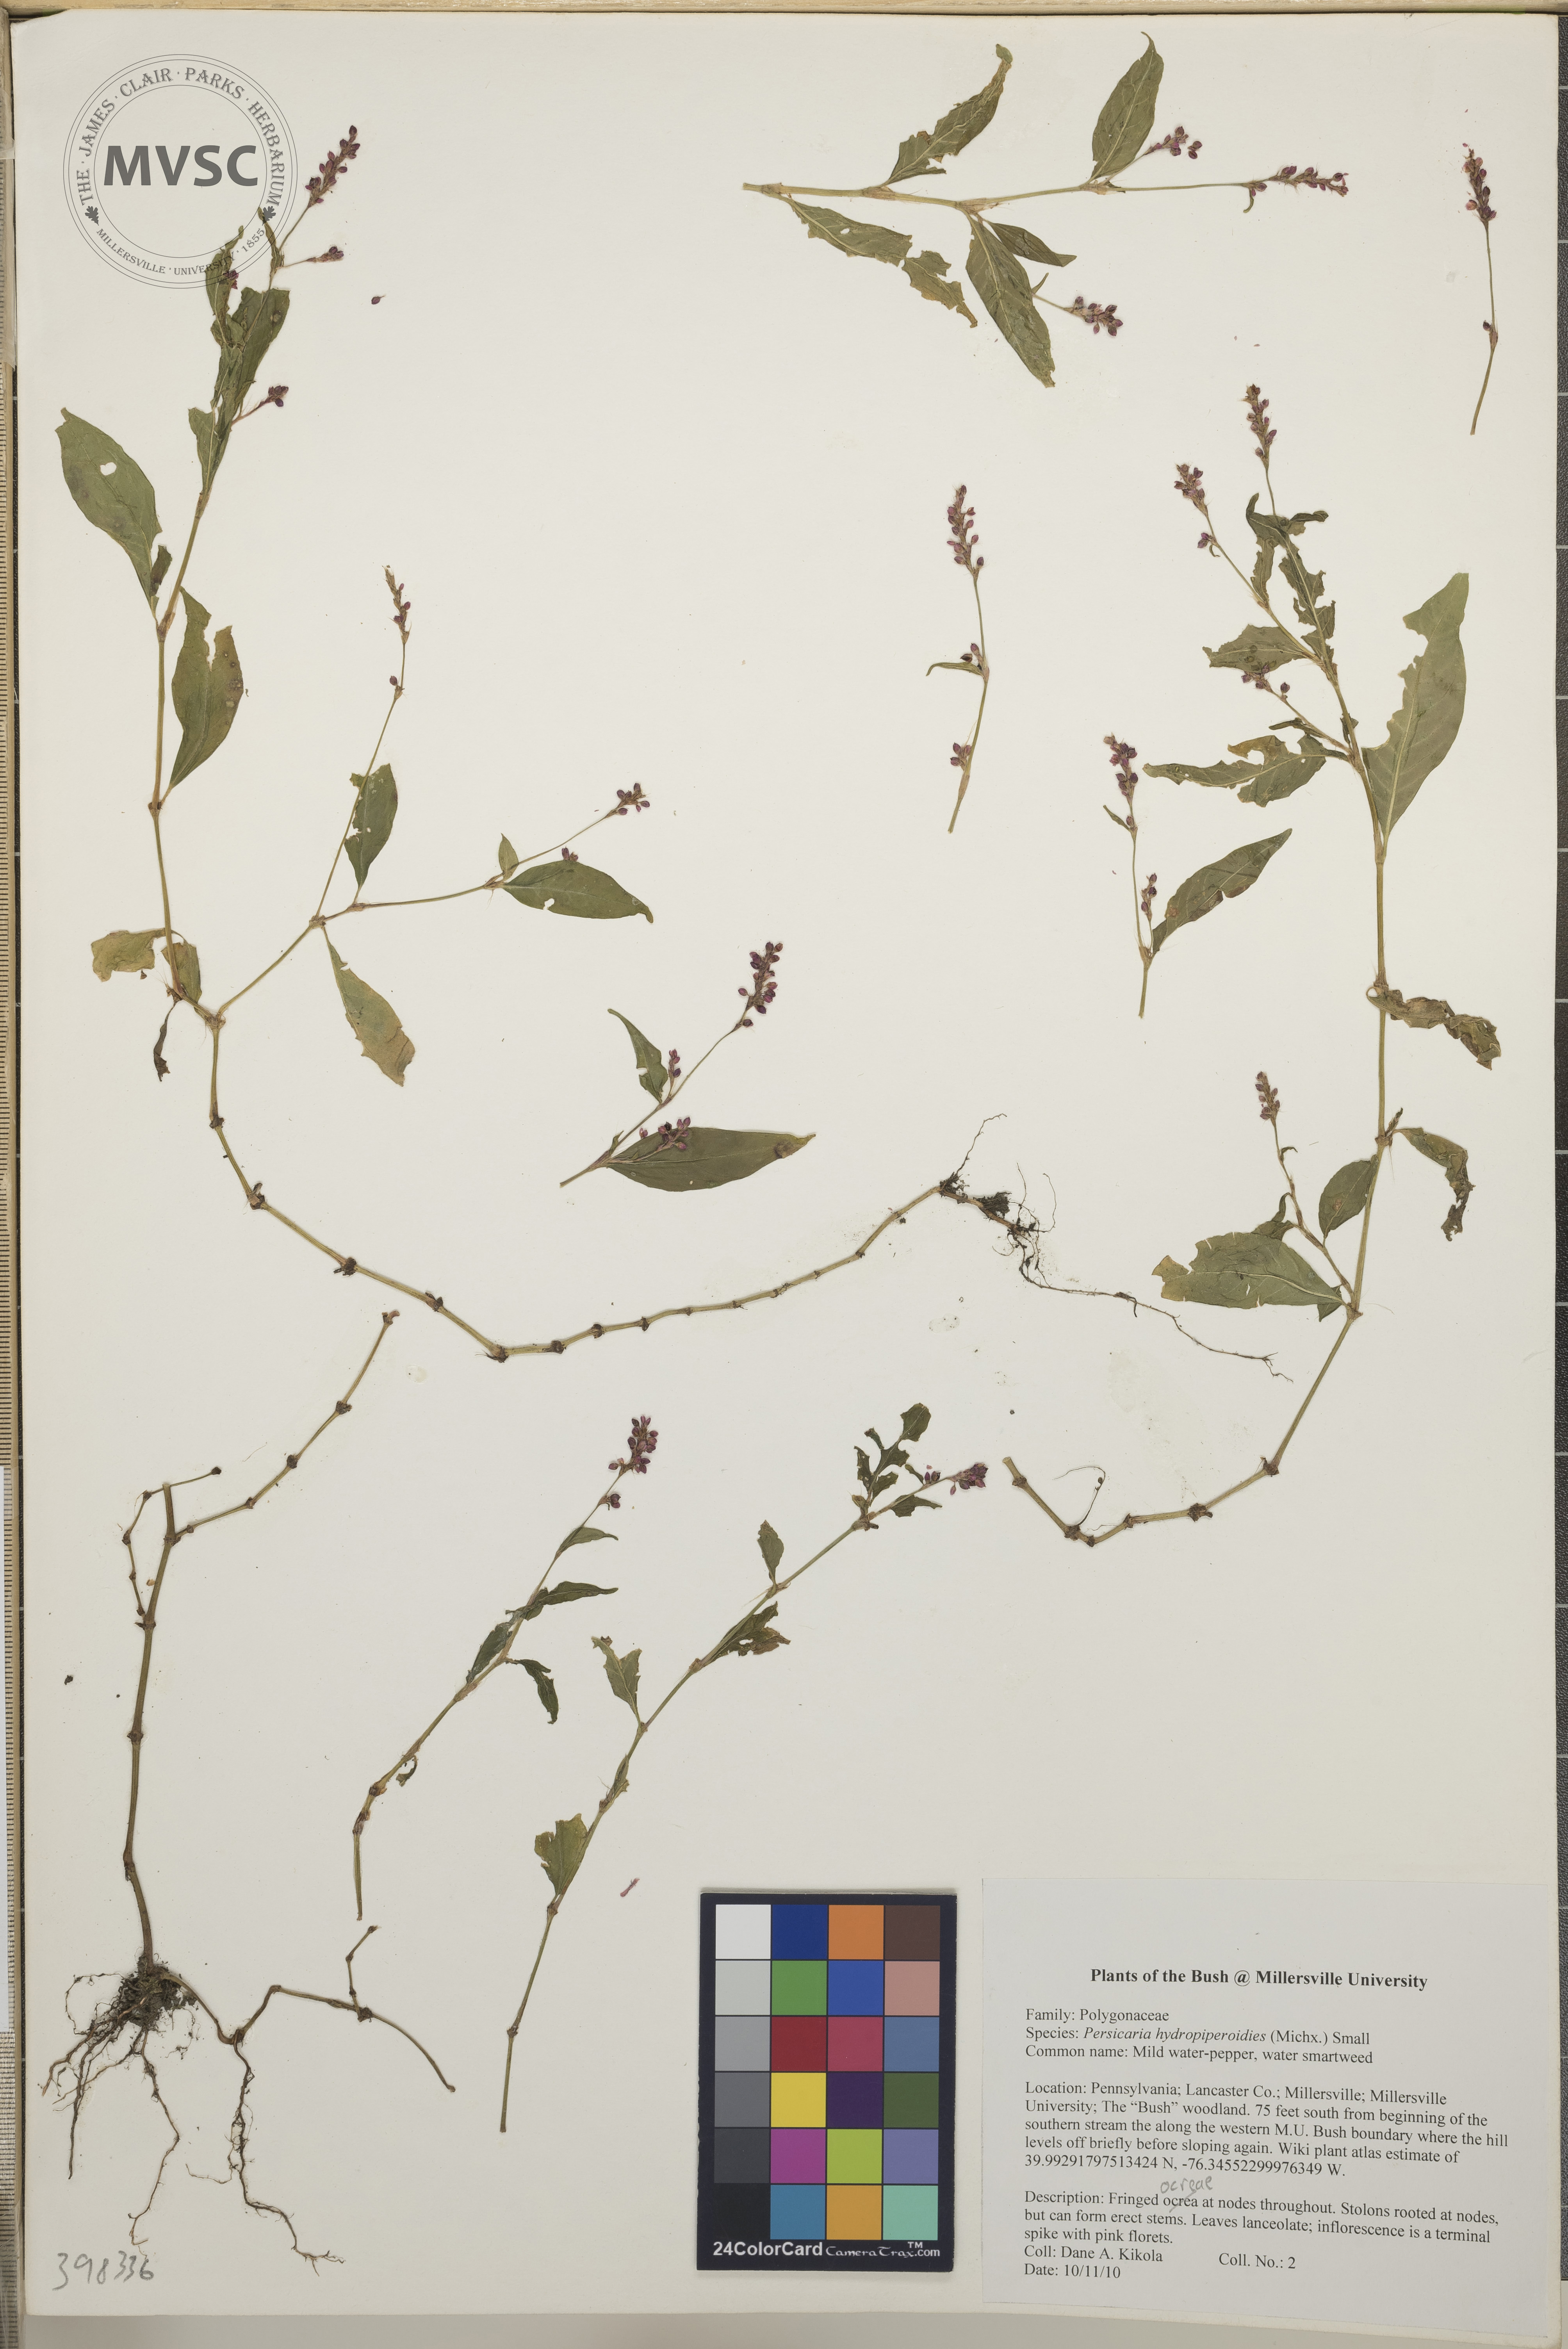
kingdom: Plantae
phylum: Tracheophyta
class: Magnoliopsida
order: Caryophyllales
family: Polygonaceae
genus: Persicaria
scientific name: Persicaria hydropiperoides
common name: Mild water-pepper
